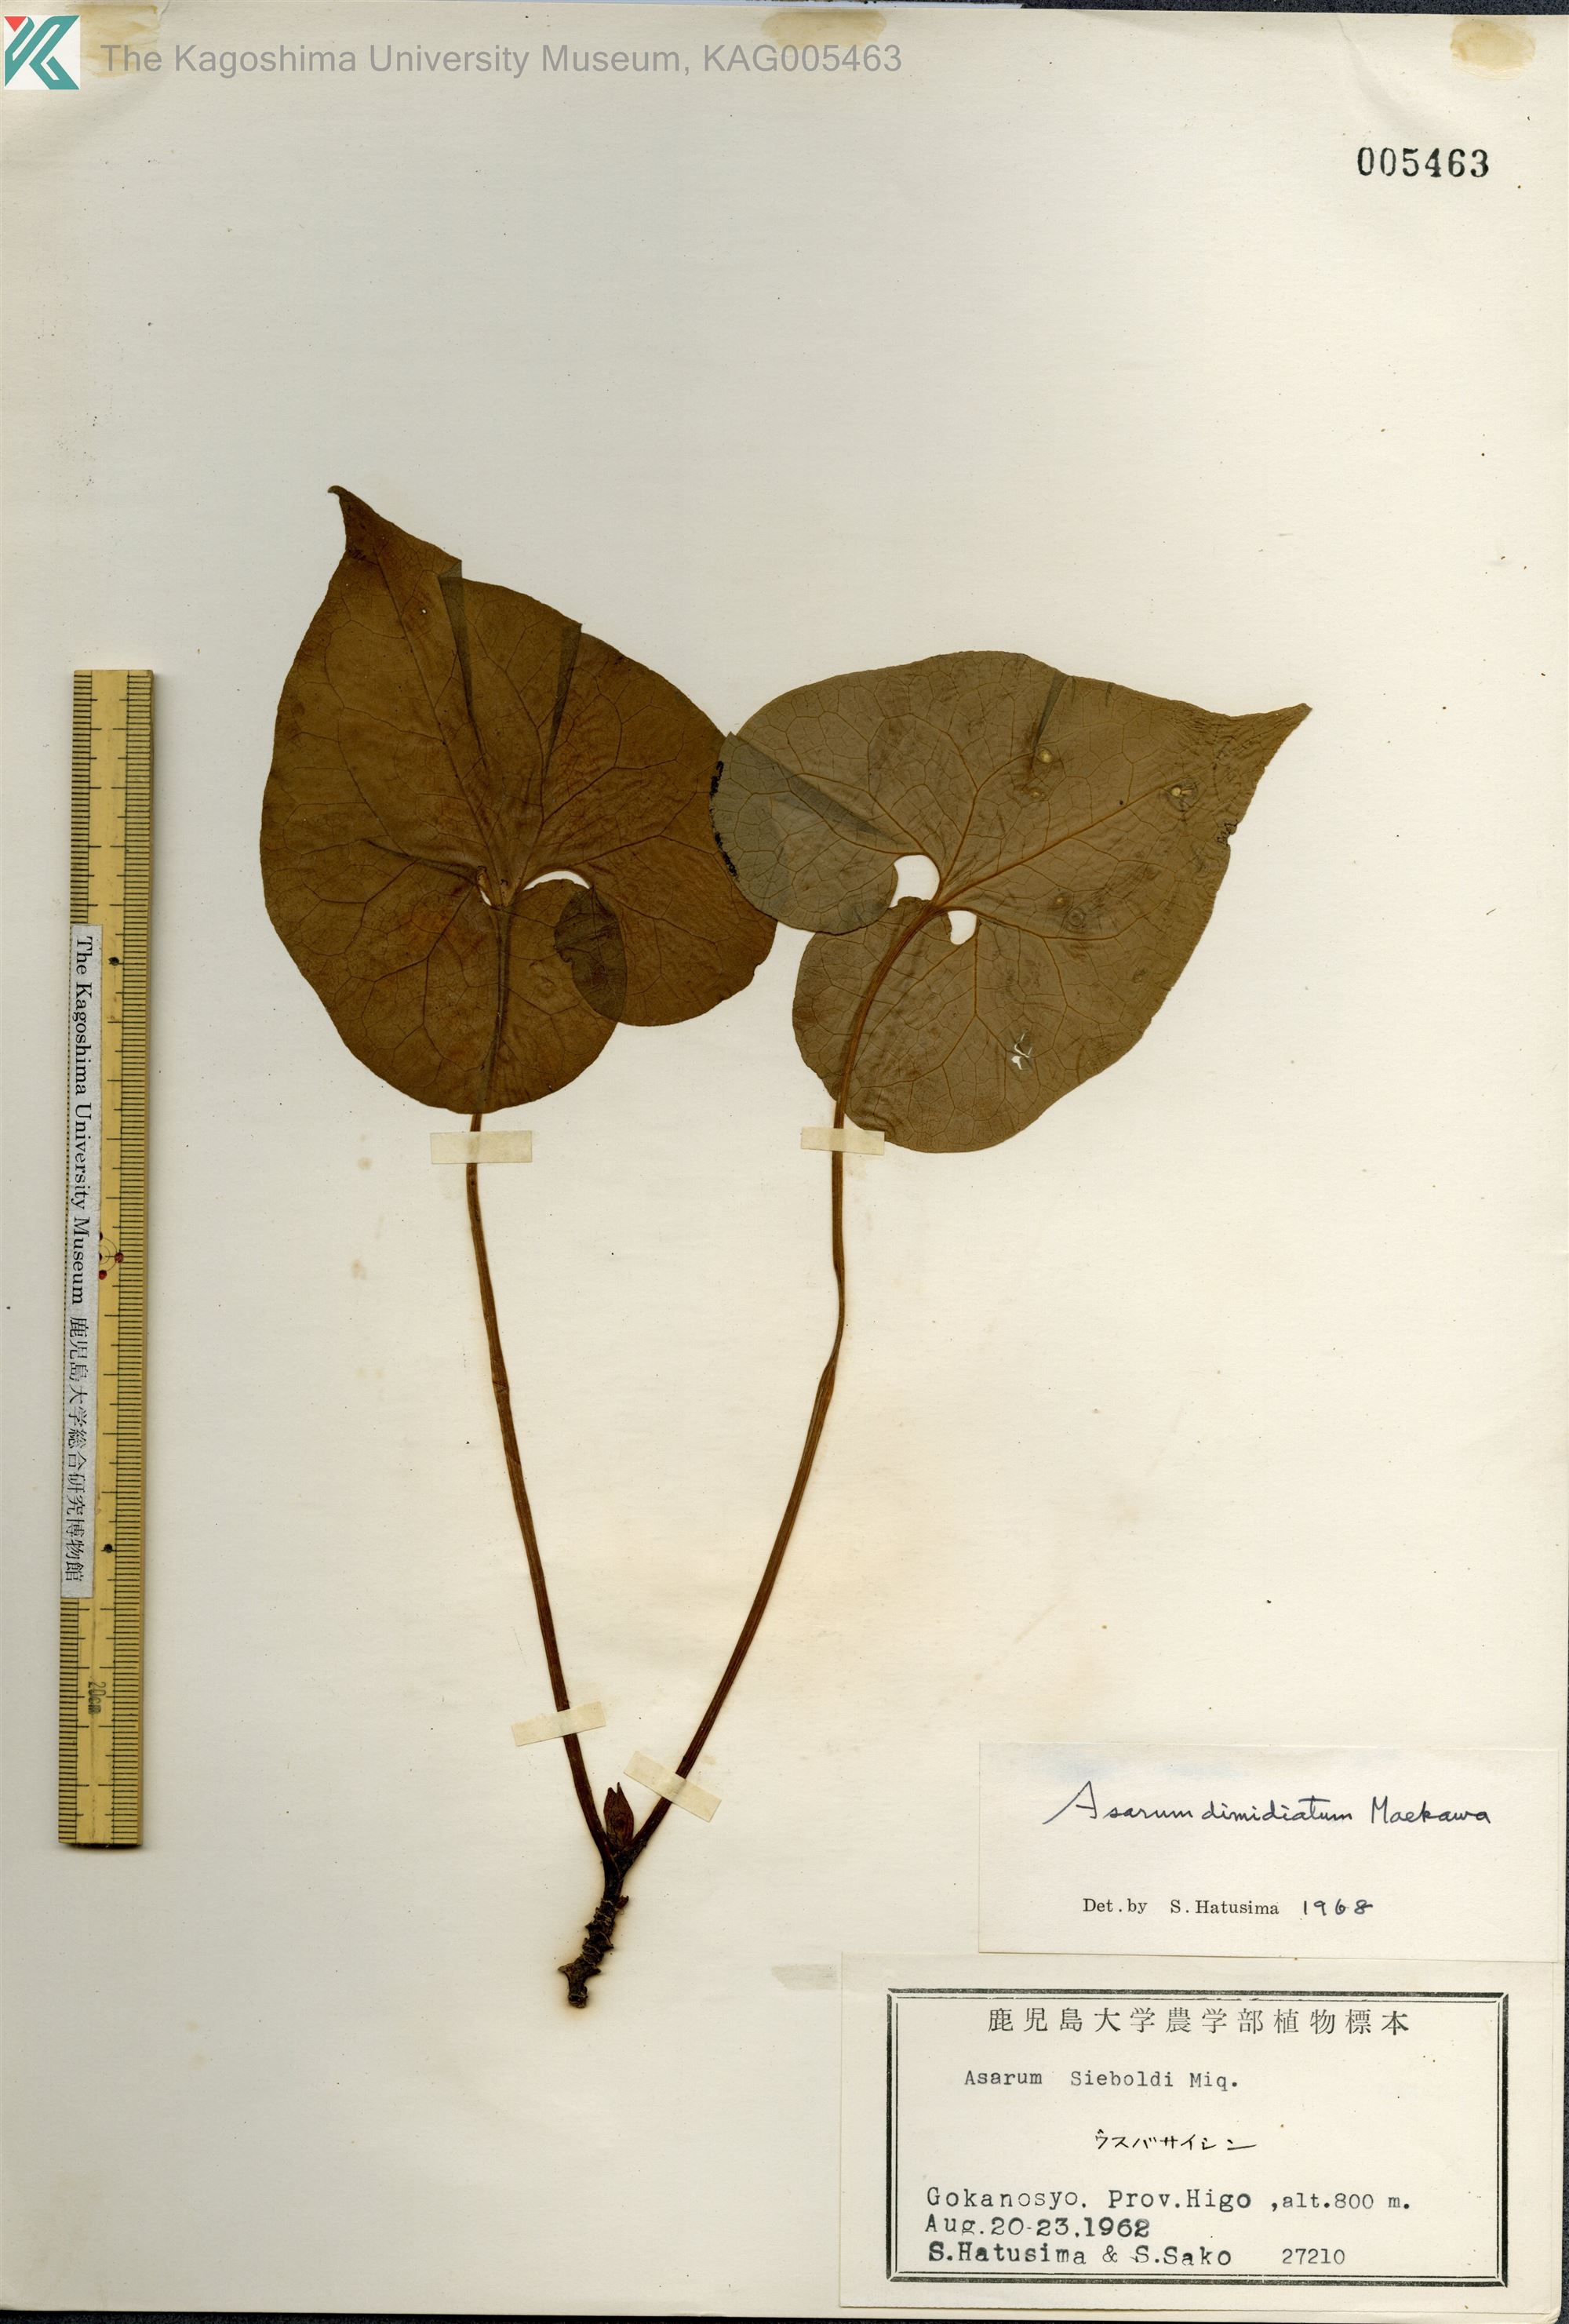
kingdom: Plantae
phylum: Tracheophyta
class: Magnoliopsida
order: Piperales
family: Aristolochiaceae
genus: Asarum
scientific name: Asarum sieboldii
